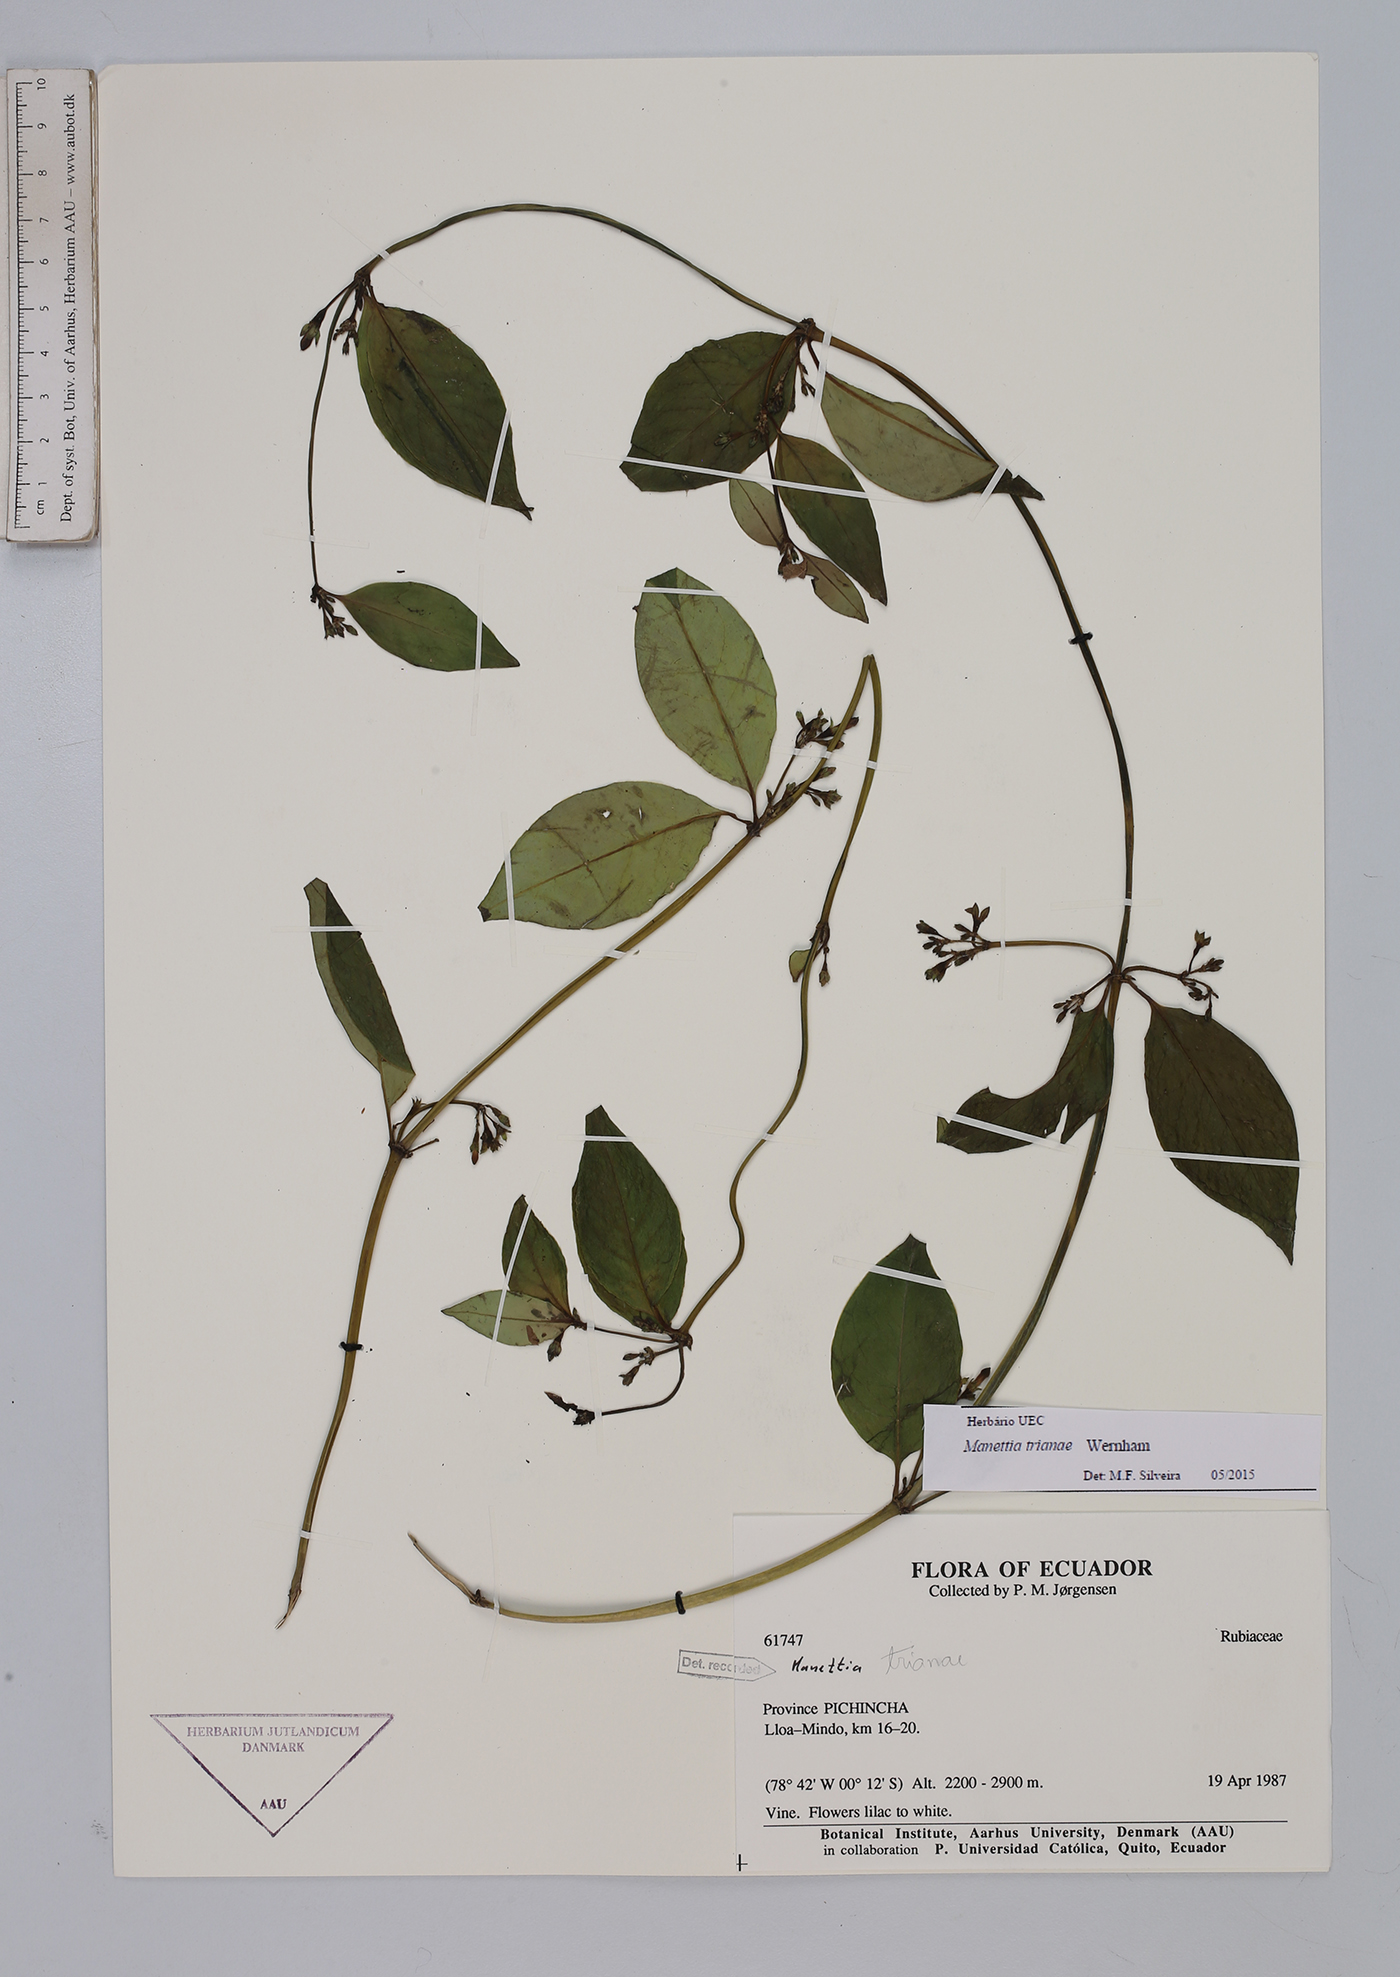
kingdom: Plantae
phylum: Tracheophyta
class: Magnoliopsida
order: Gentianales
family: Rubiaceae
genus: Manettia
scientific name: Manettia trianae
